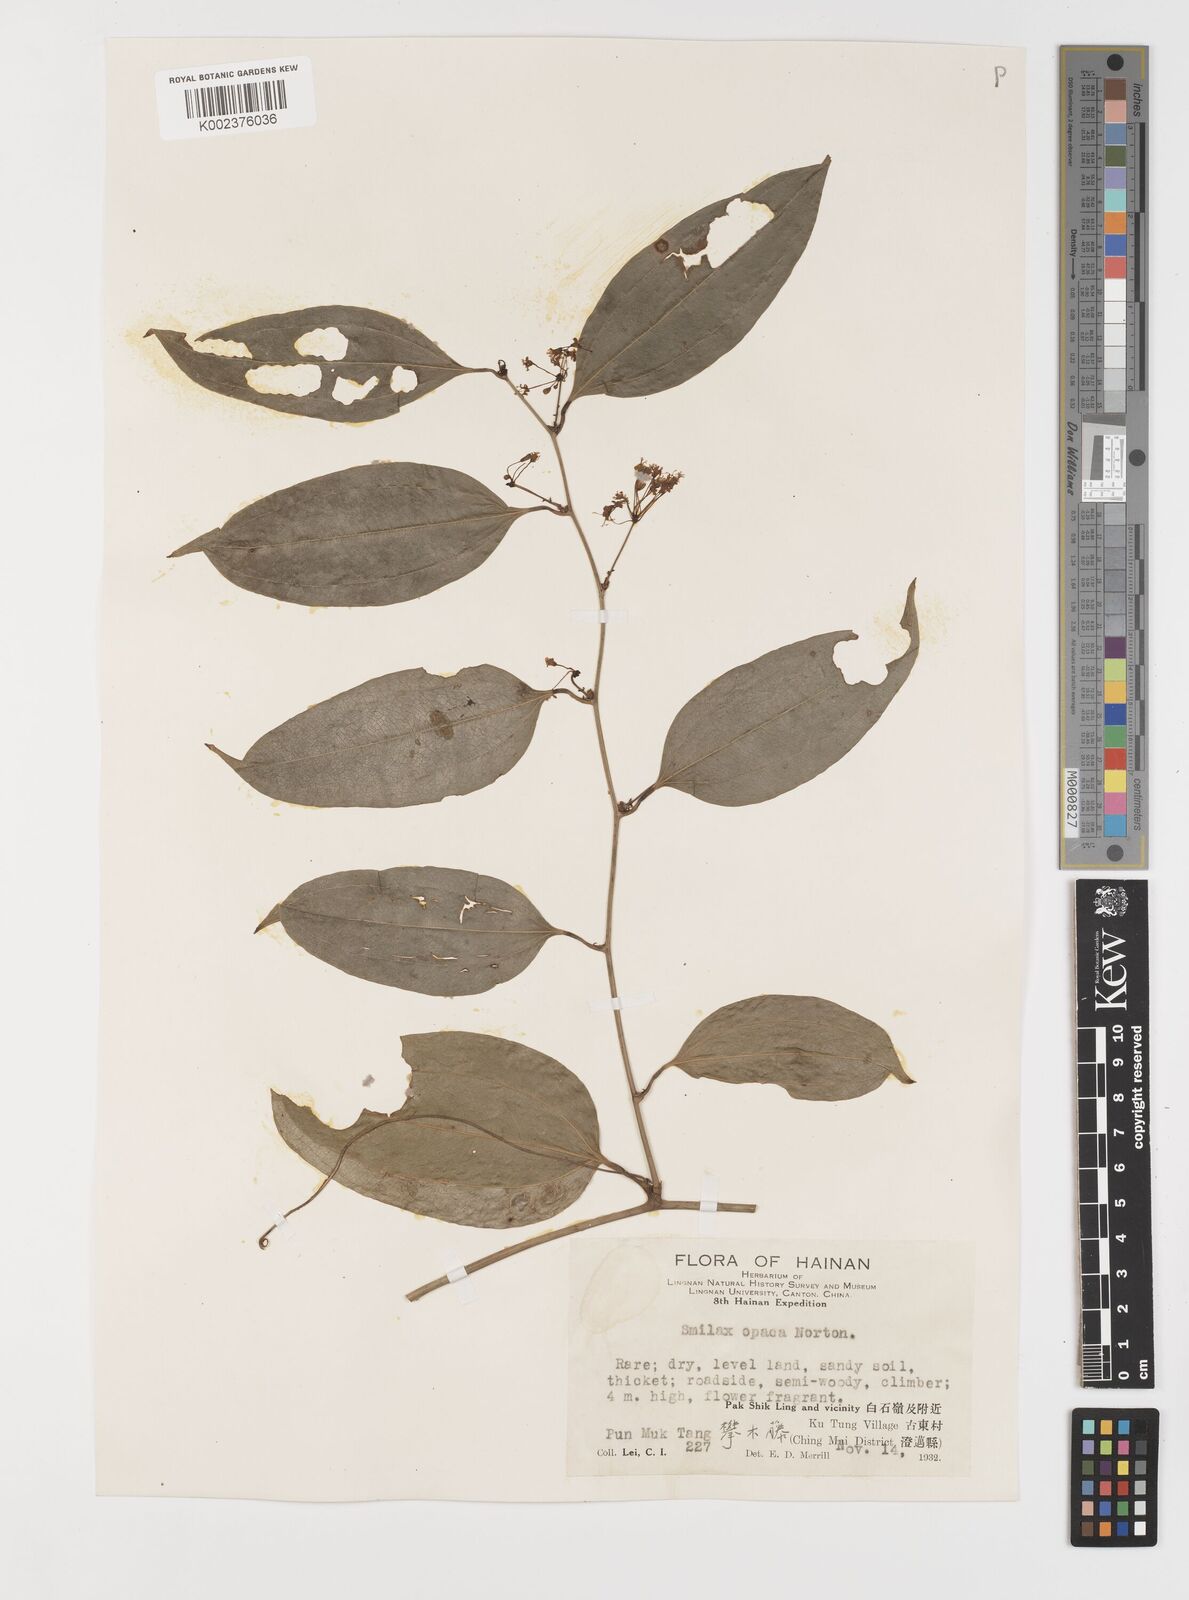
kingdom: Plantae
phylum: Tracheophyta
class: Liliopsida
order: Liliales
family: Smilacaceae
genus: Smilax
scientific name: Smilax laevis
